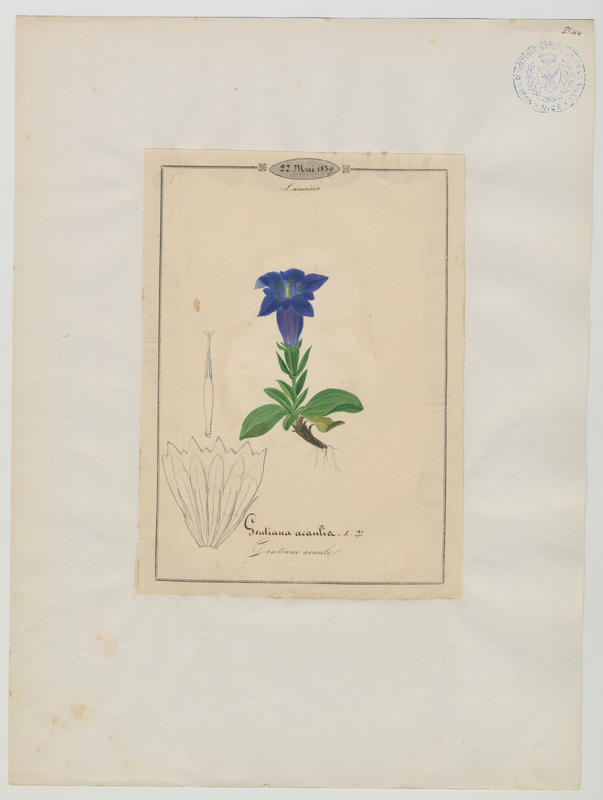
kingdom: Plantae
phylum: Tracheophyta
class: Magnoliopsida
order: Gentianales
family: Gentianaceae
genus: Gentiana
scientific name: Gentiana acaulis
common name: Trumpet gentian
